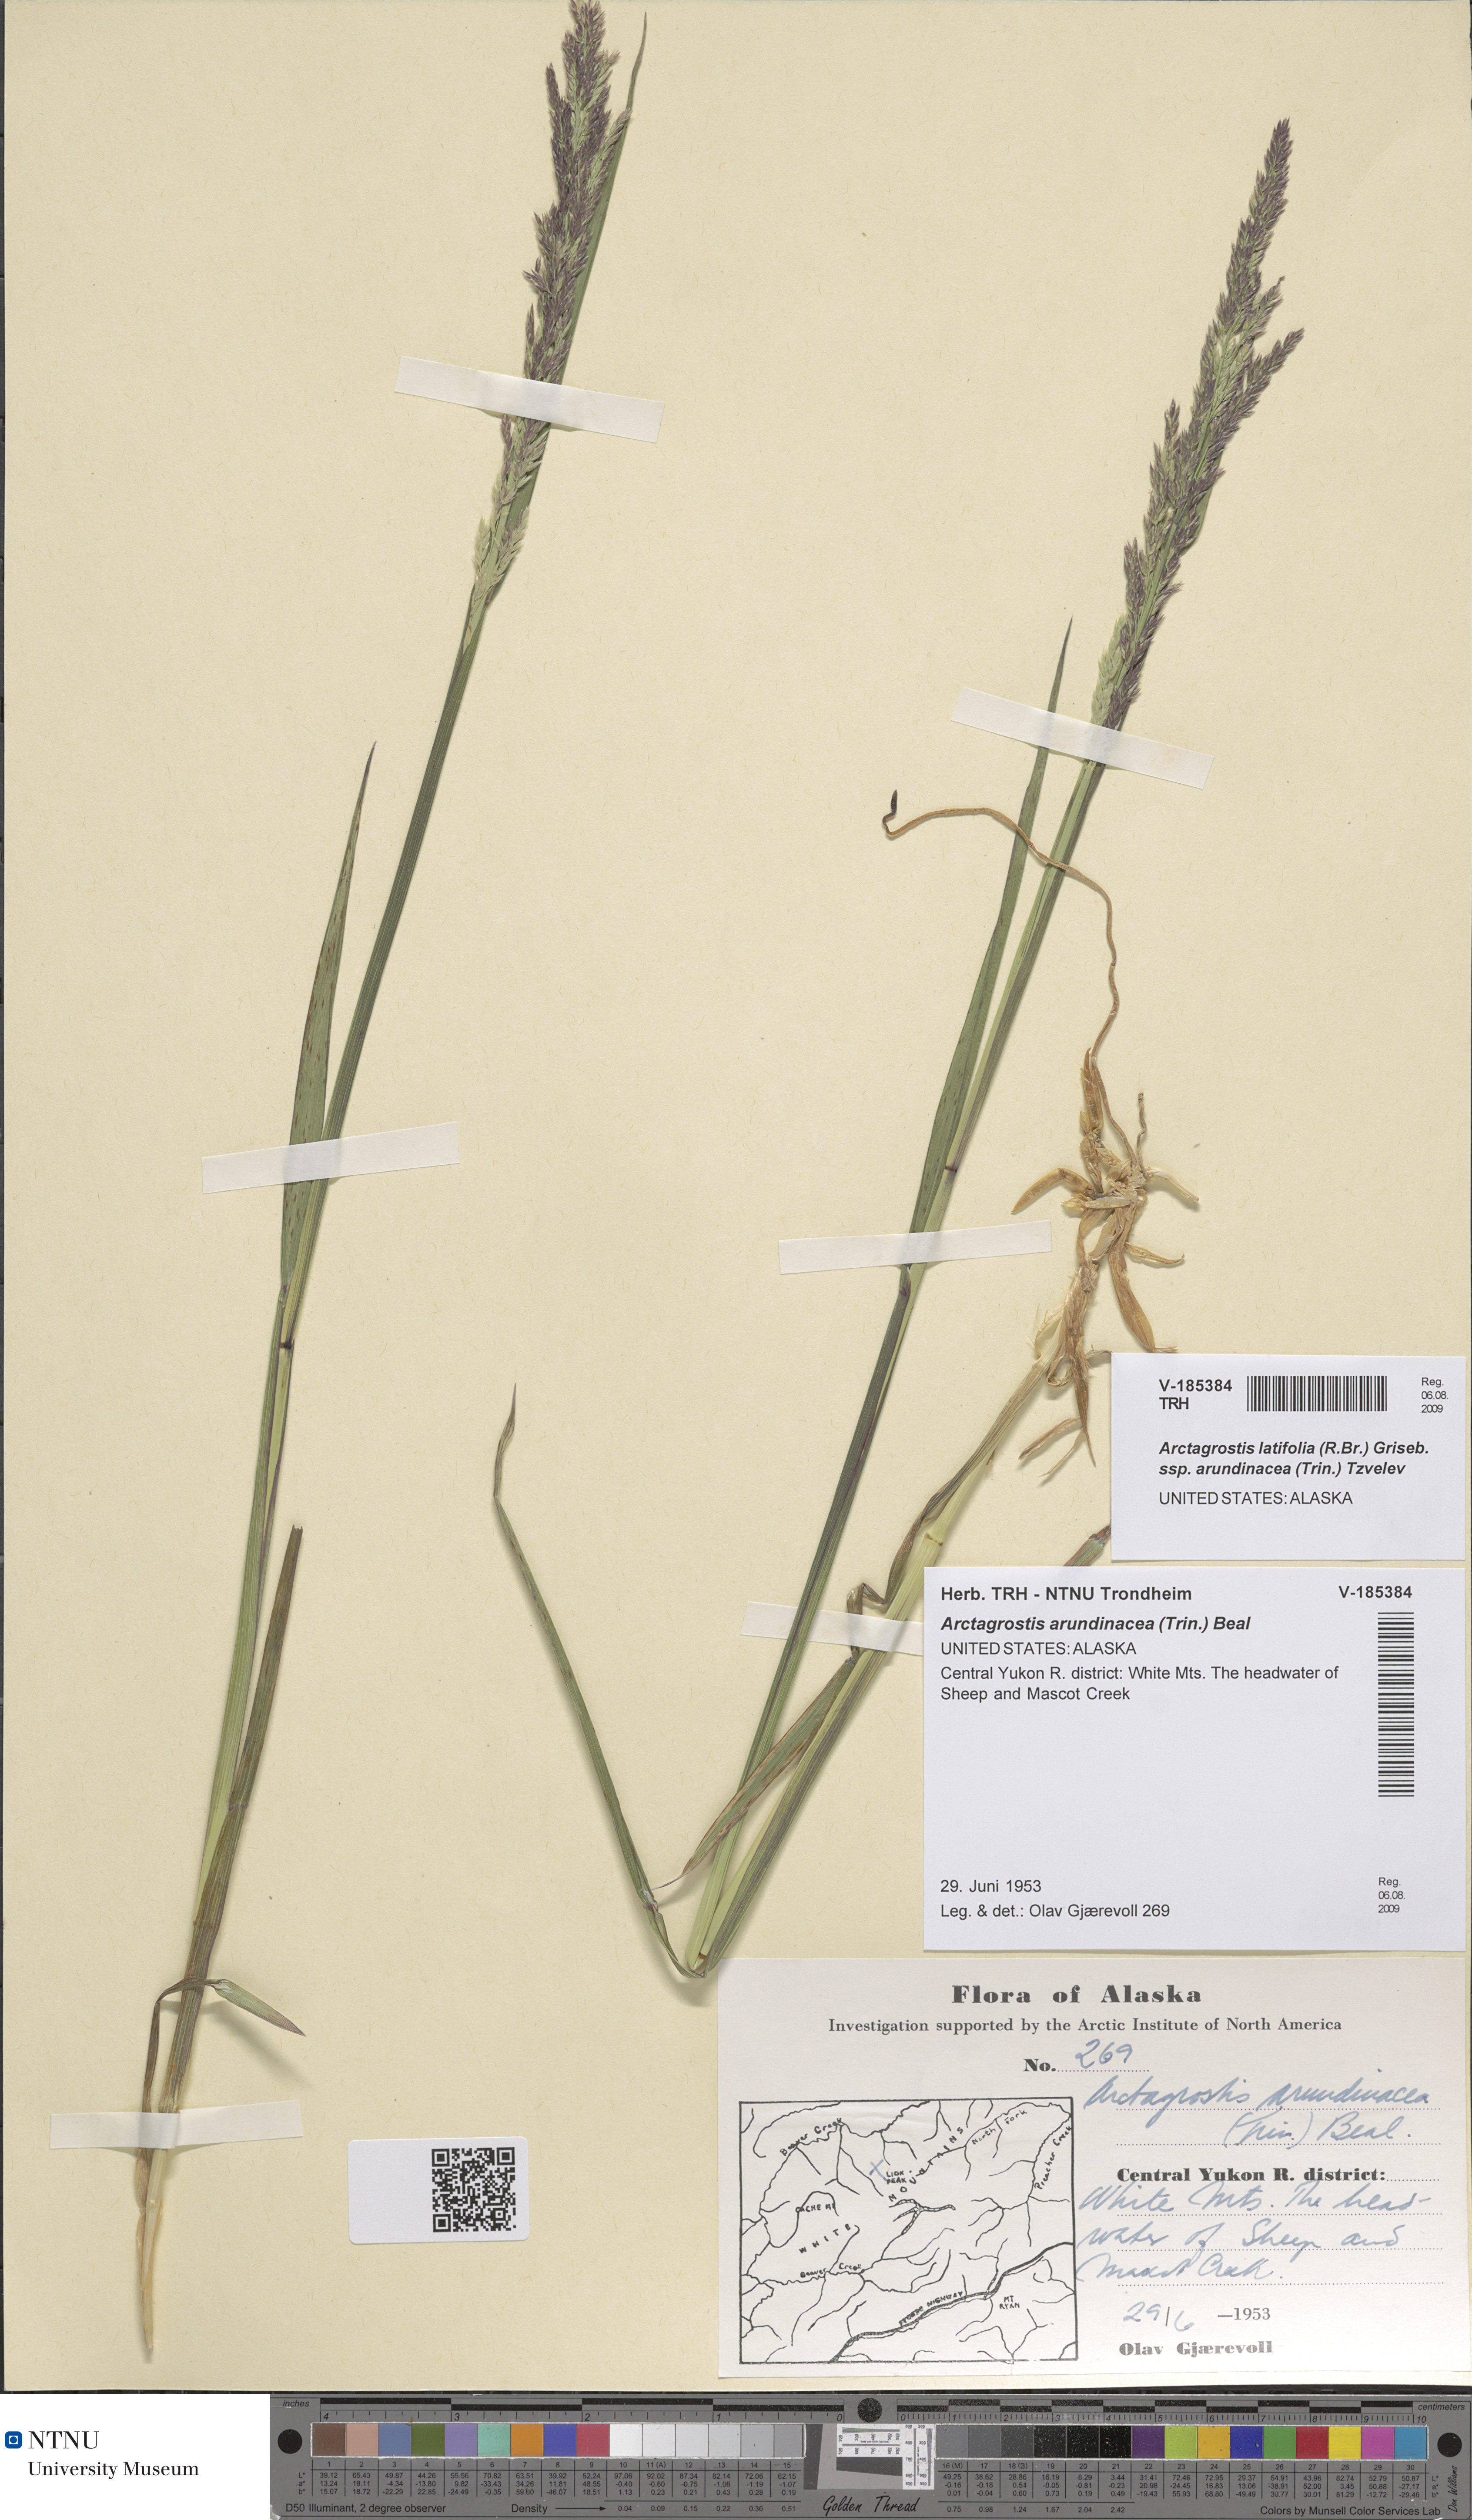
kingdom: Plantae
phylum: Tracheophyta
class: Liliopsida
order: Poales
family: Poaceae
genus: Arctagrostis
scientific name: Arctagrostis arundinacea
